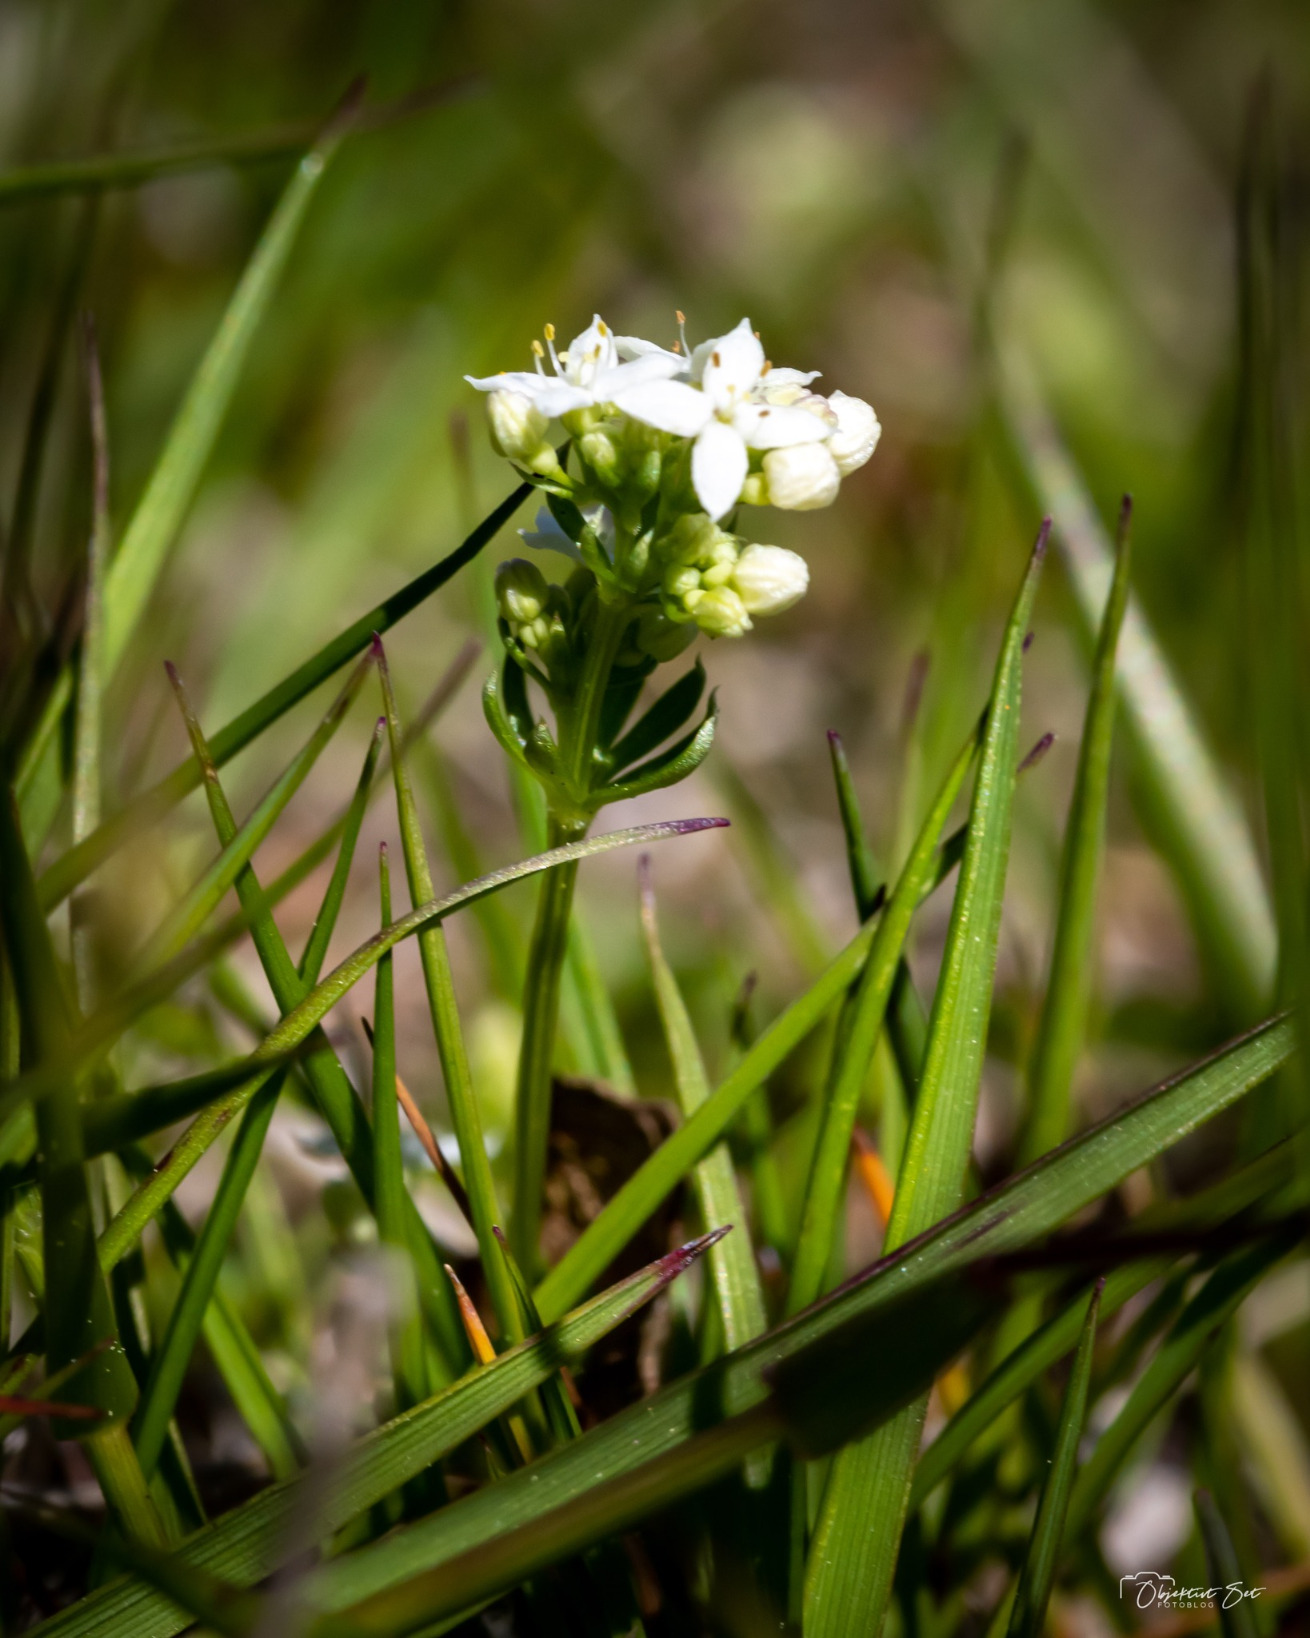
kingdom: Plantae
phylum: Tracheophyta
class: Magnoliopsida
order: Gentianales
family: Rubiaceae
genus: Galium
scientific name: Galium saxatile
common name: Lyng-snerre
